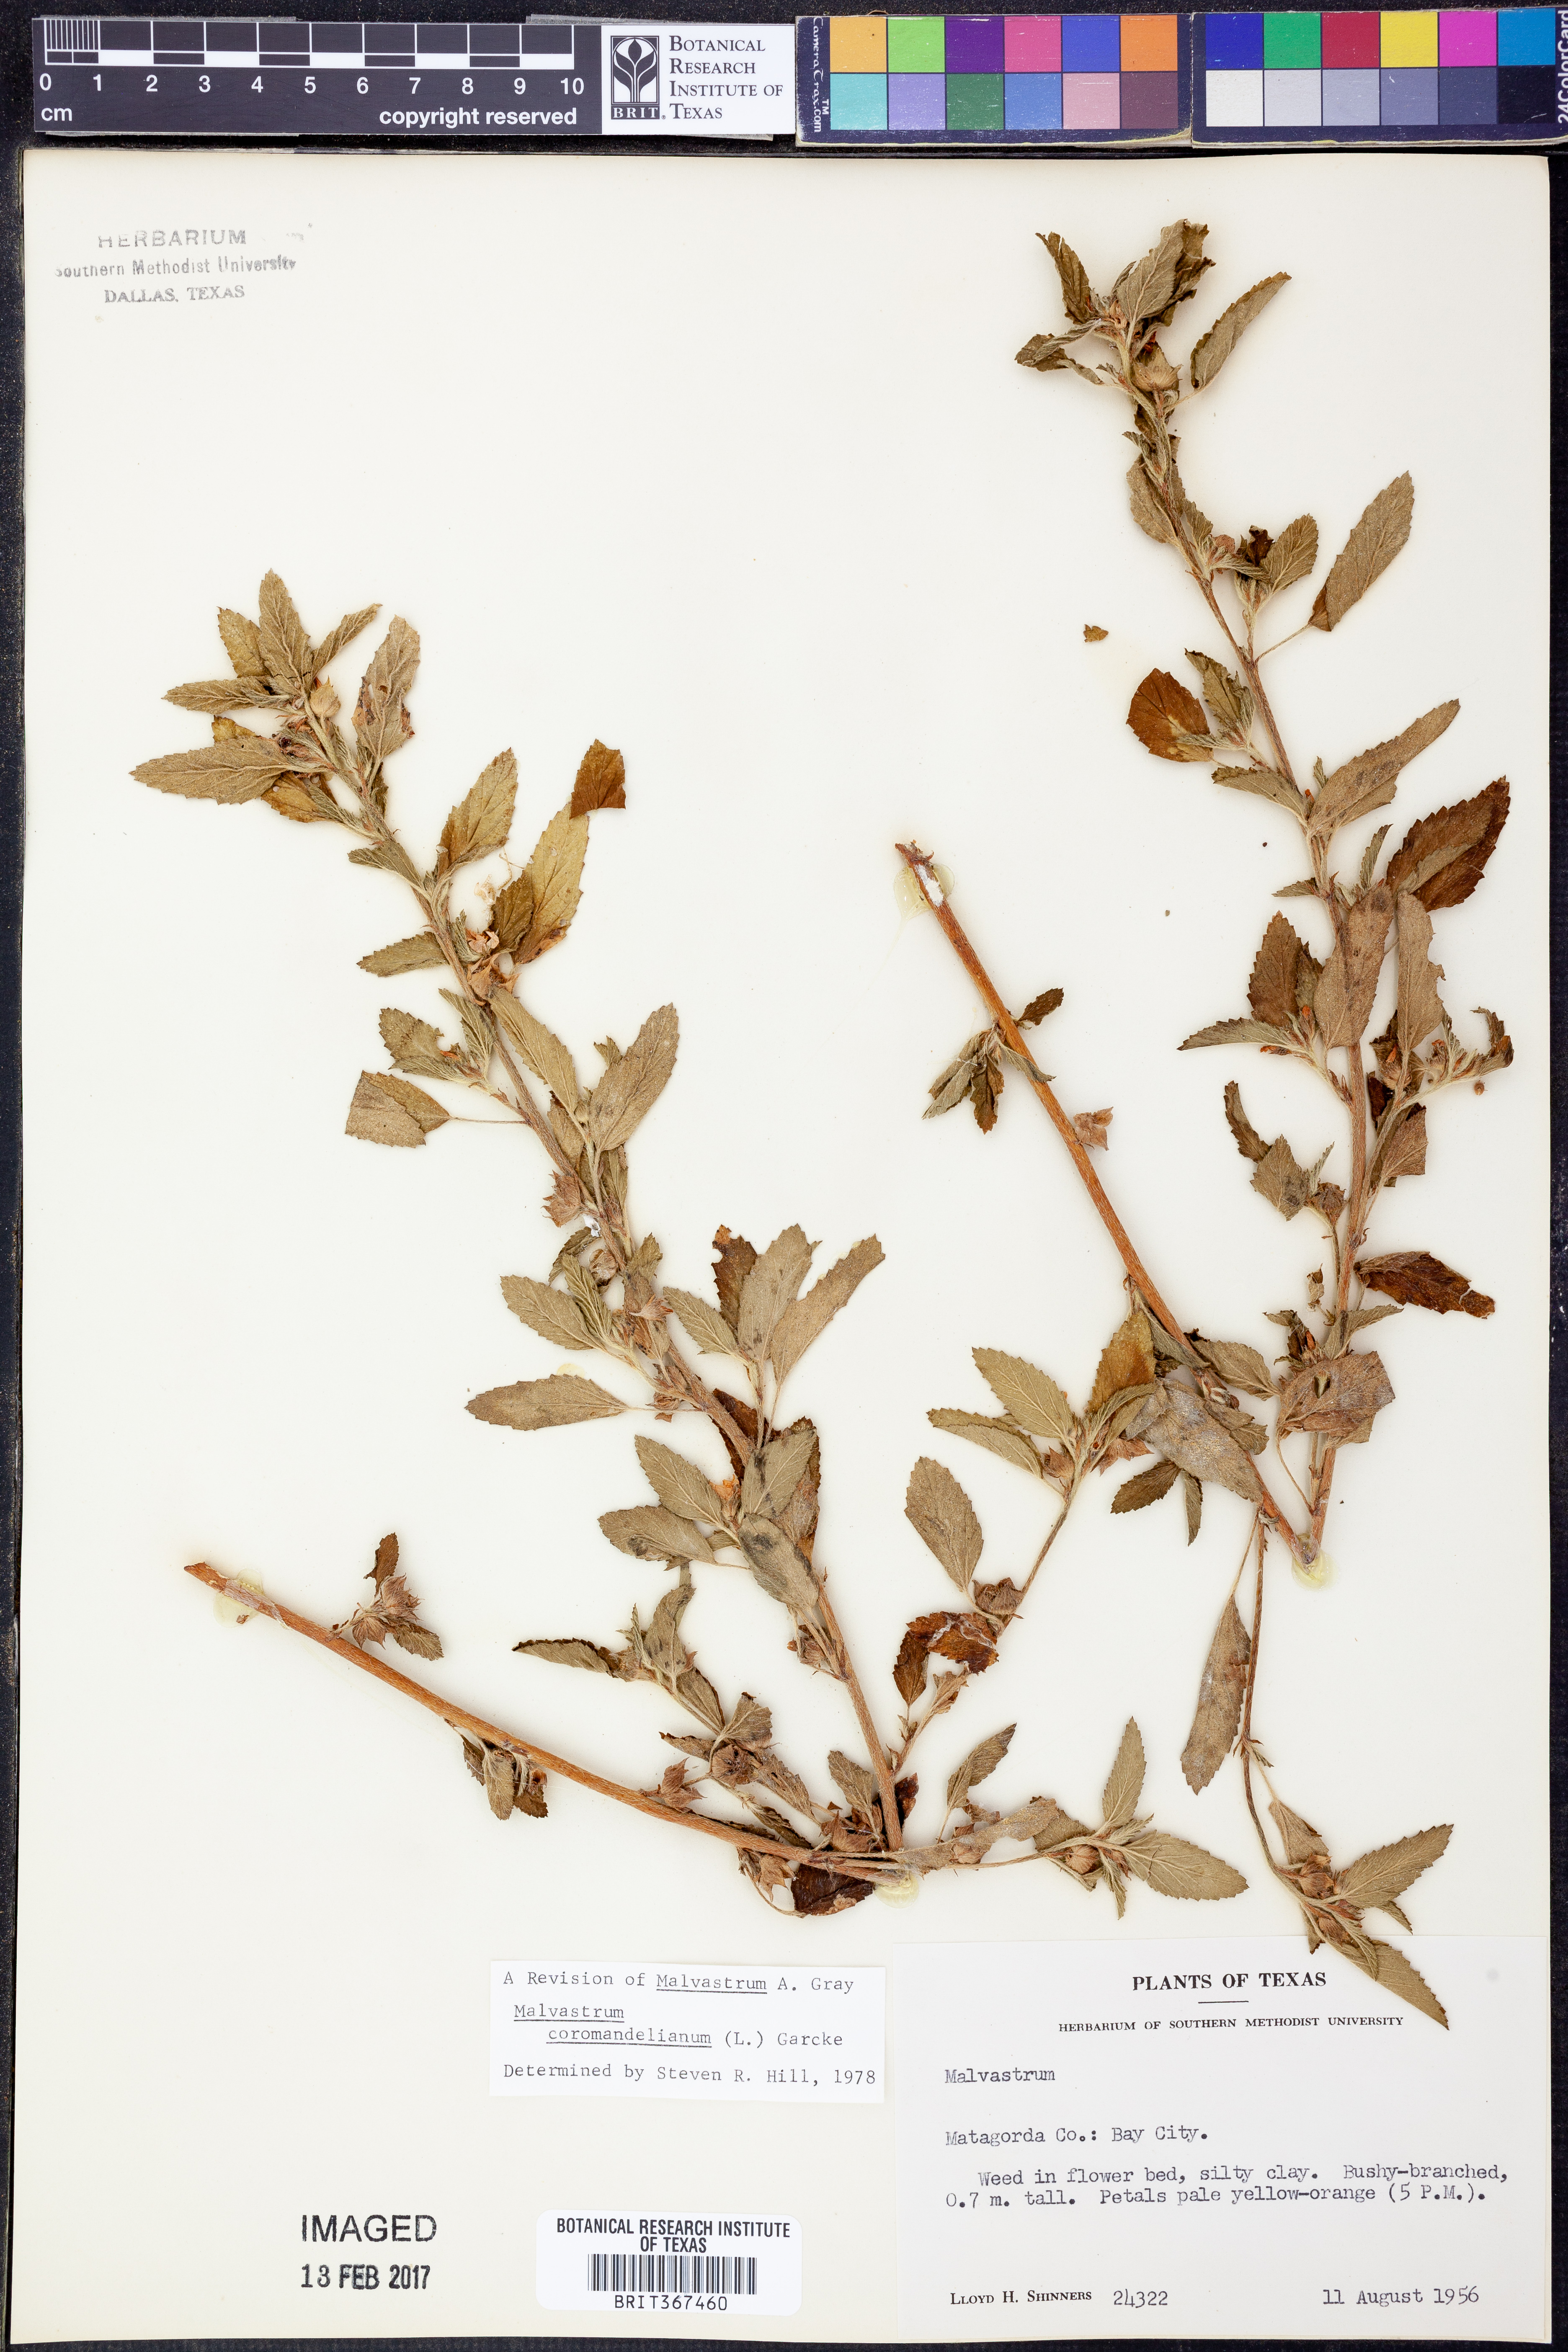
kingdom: Plantae
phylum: Tracheophyta
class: Magnoliopsida
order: Malvales
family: Malvaceae
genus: Malvastrum
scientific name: Malvastrum coromandelianum
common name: Threelobe false mallow
